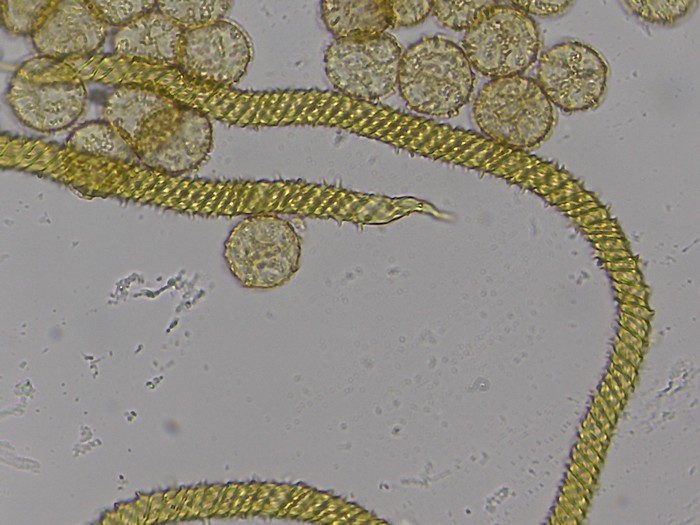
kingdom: Protozoa
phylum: Mycetozoa
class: Myxomycetes
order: Trichiales
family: Trichiaceae
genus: Oligonema
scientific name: Oligonema persimile
